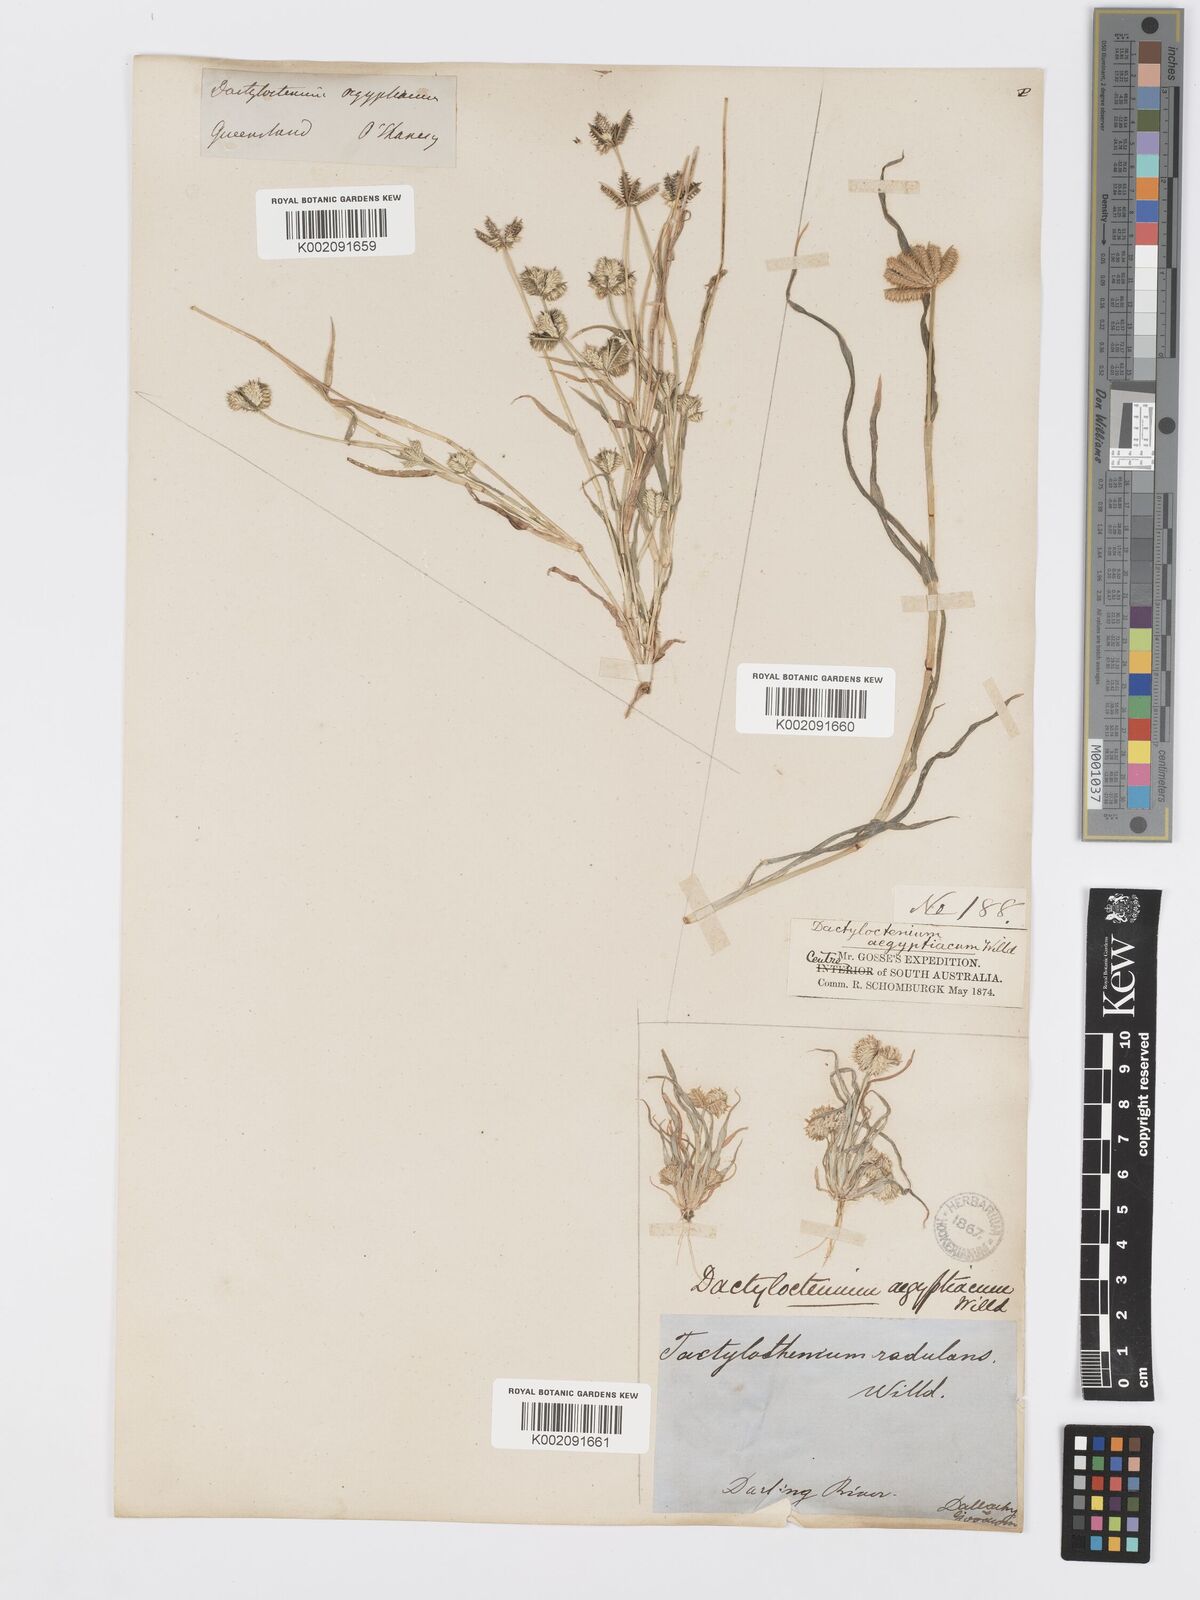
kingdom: Plantae
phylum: Tracheophyta
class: Liliopsida
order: Poales
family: Poaceae
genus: Dactyloctenium
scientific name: Dactyloctenium radulans
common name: Button-grass
